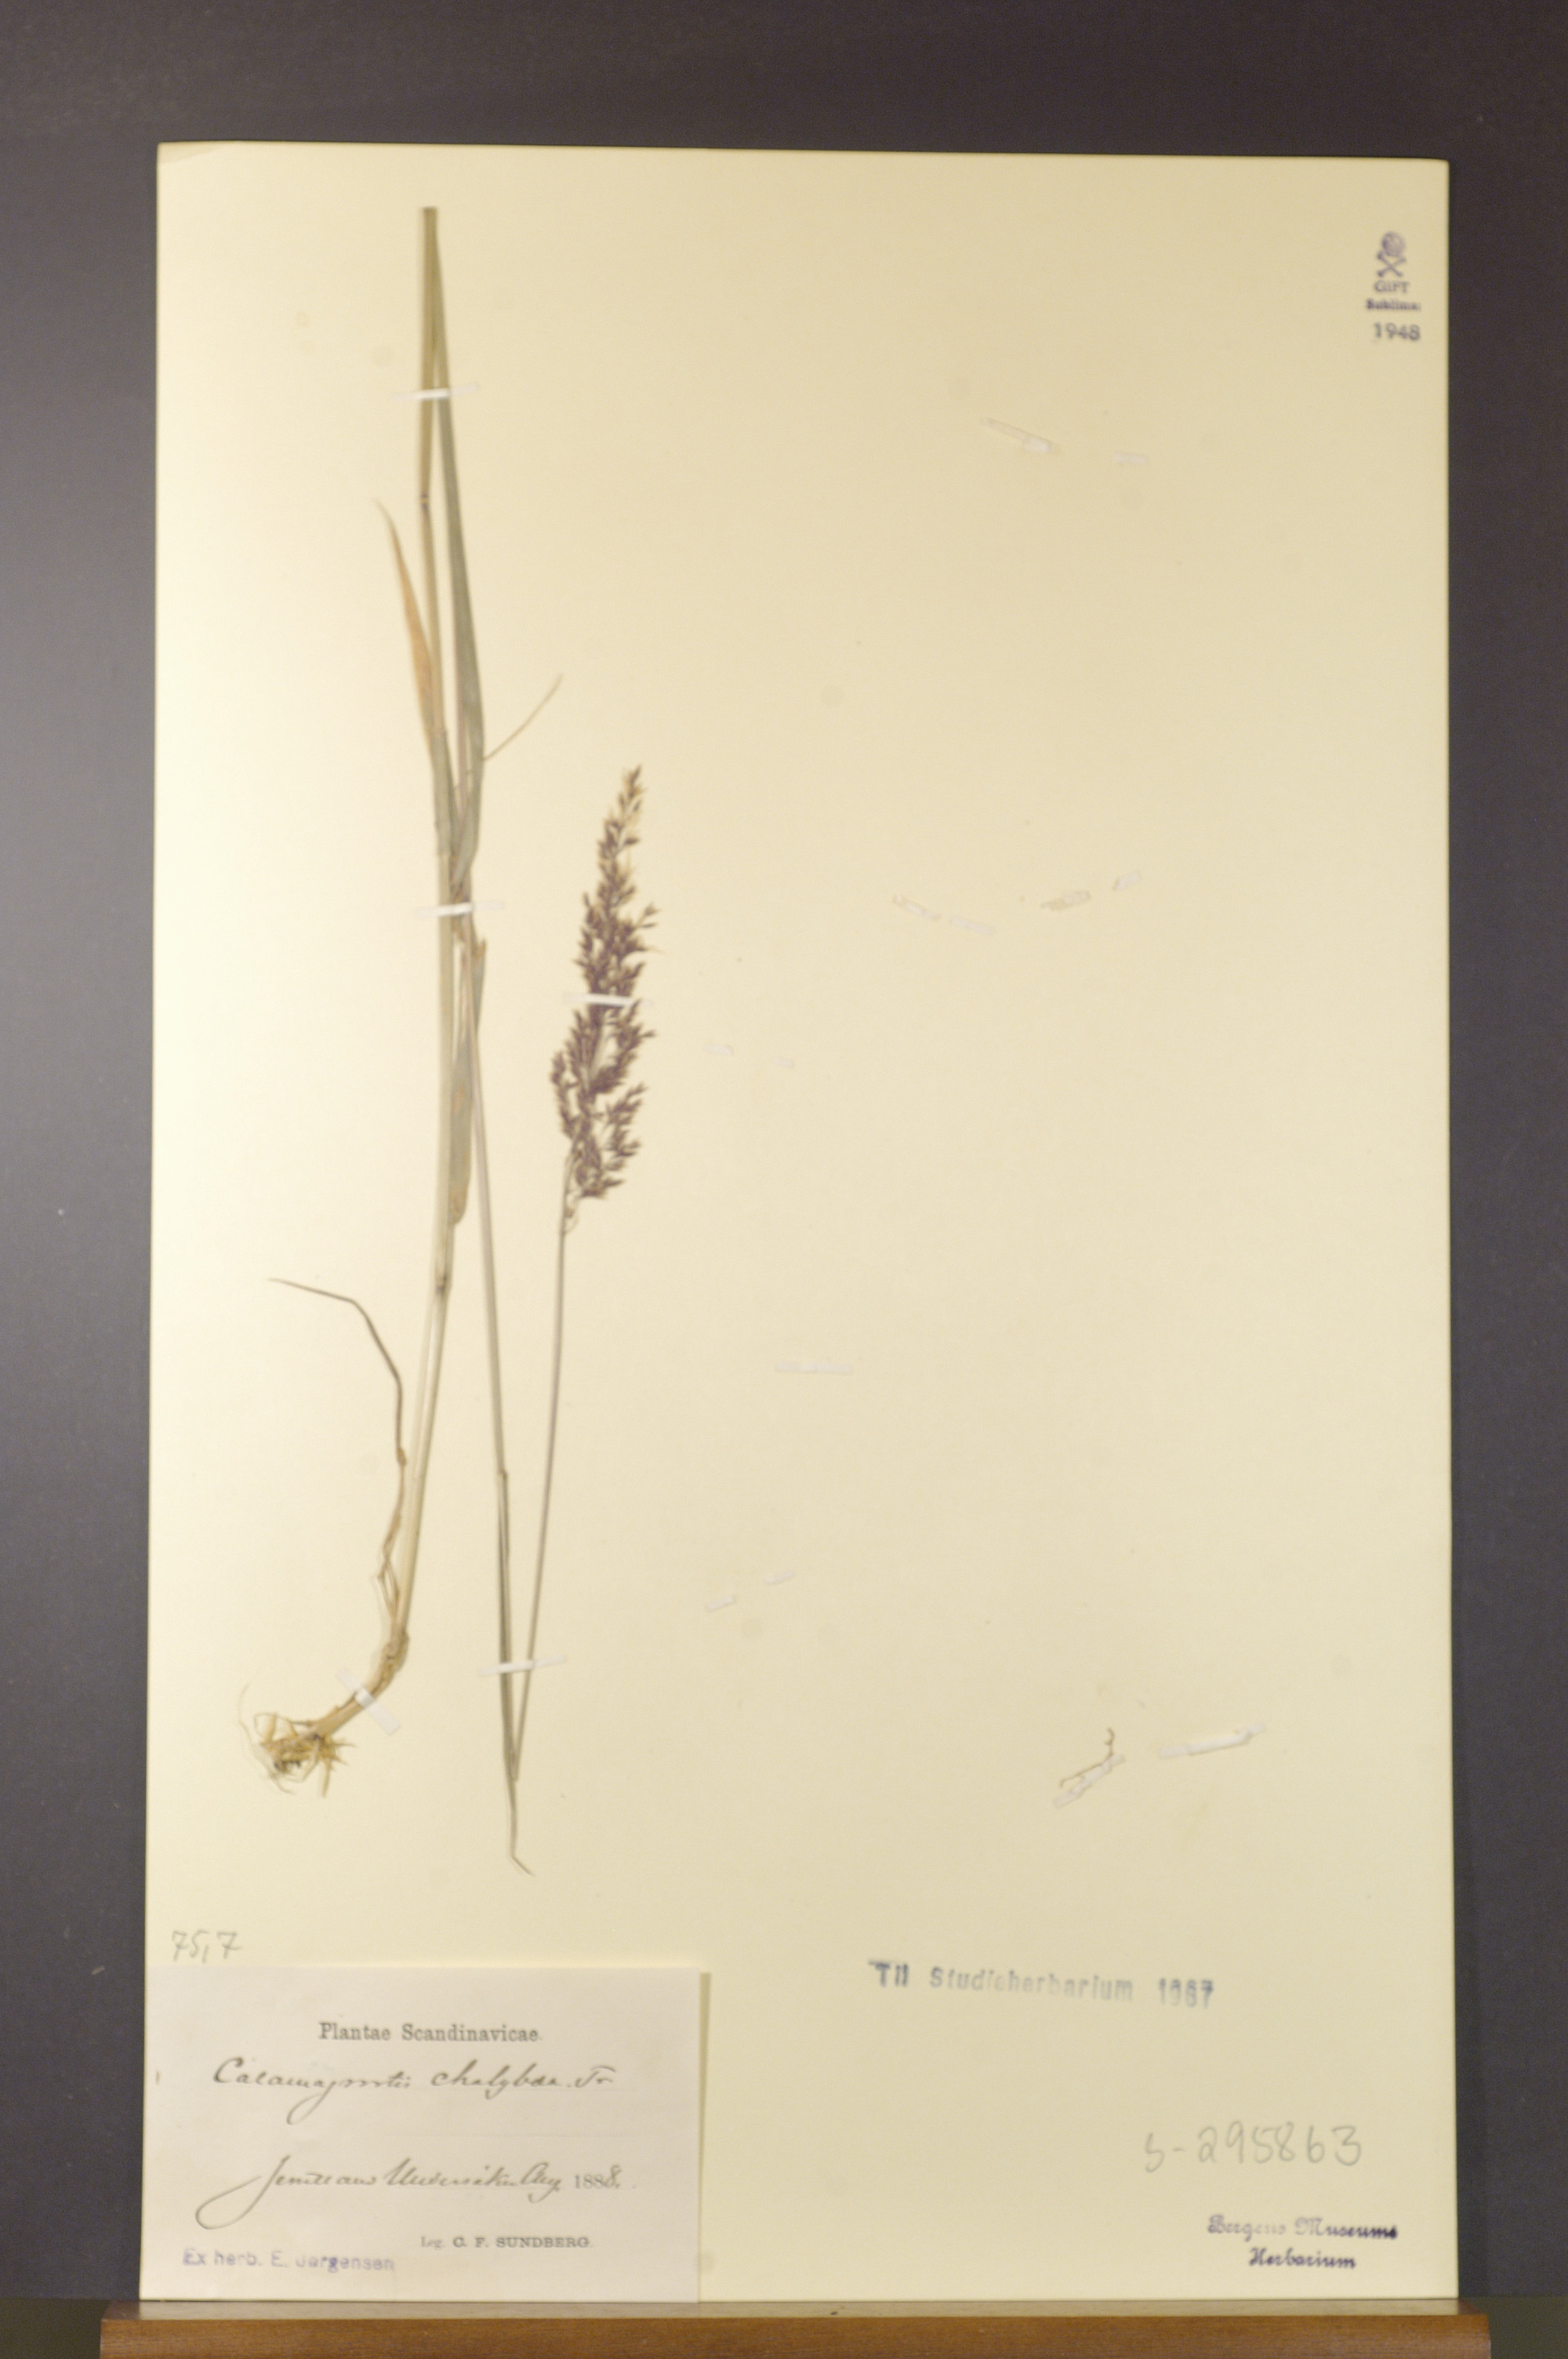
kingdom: Plantae
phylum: Tracheophyta
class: Liliopsida
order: Poales
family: Poaceae
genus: Calamagrostis
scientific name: Calamagrostis chalybaea
